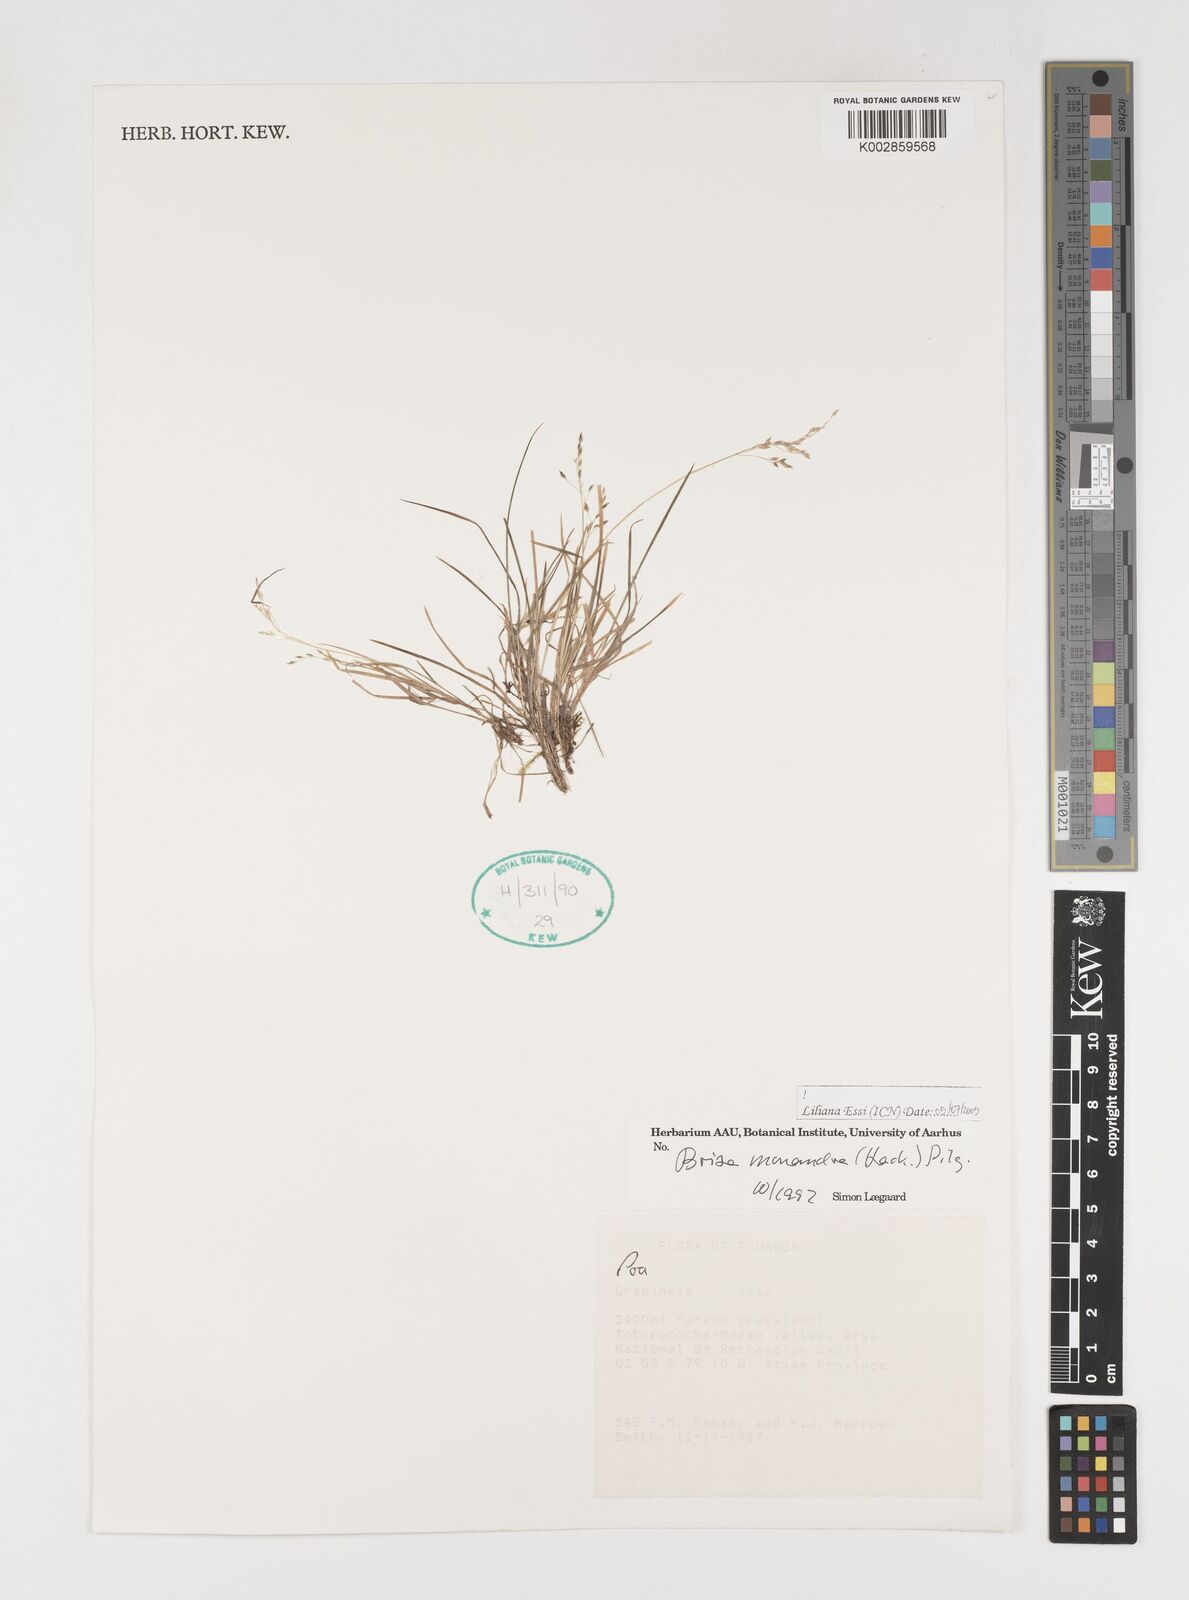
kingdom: Plantae
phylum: Tracheophyta
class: Liliopsida
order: Poales
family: Poaceae
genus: Poidium
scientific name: Poidium monandrum
